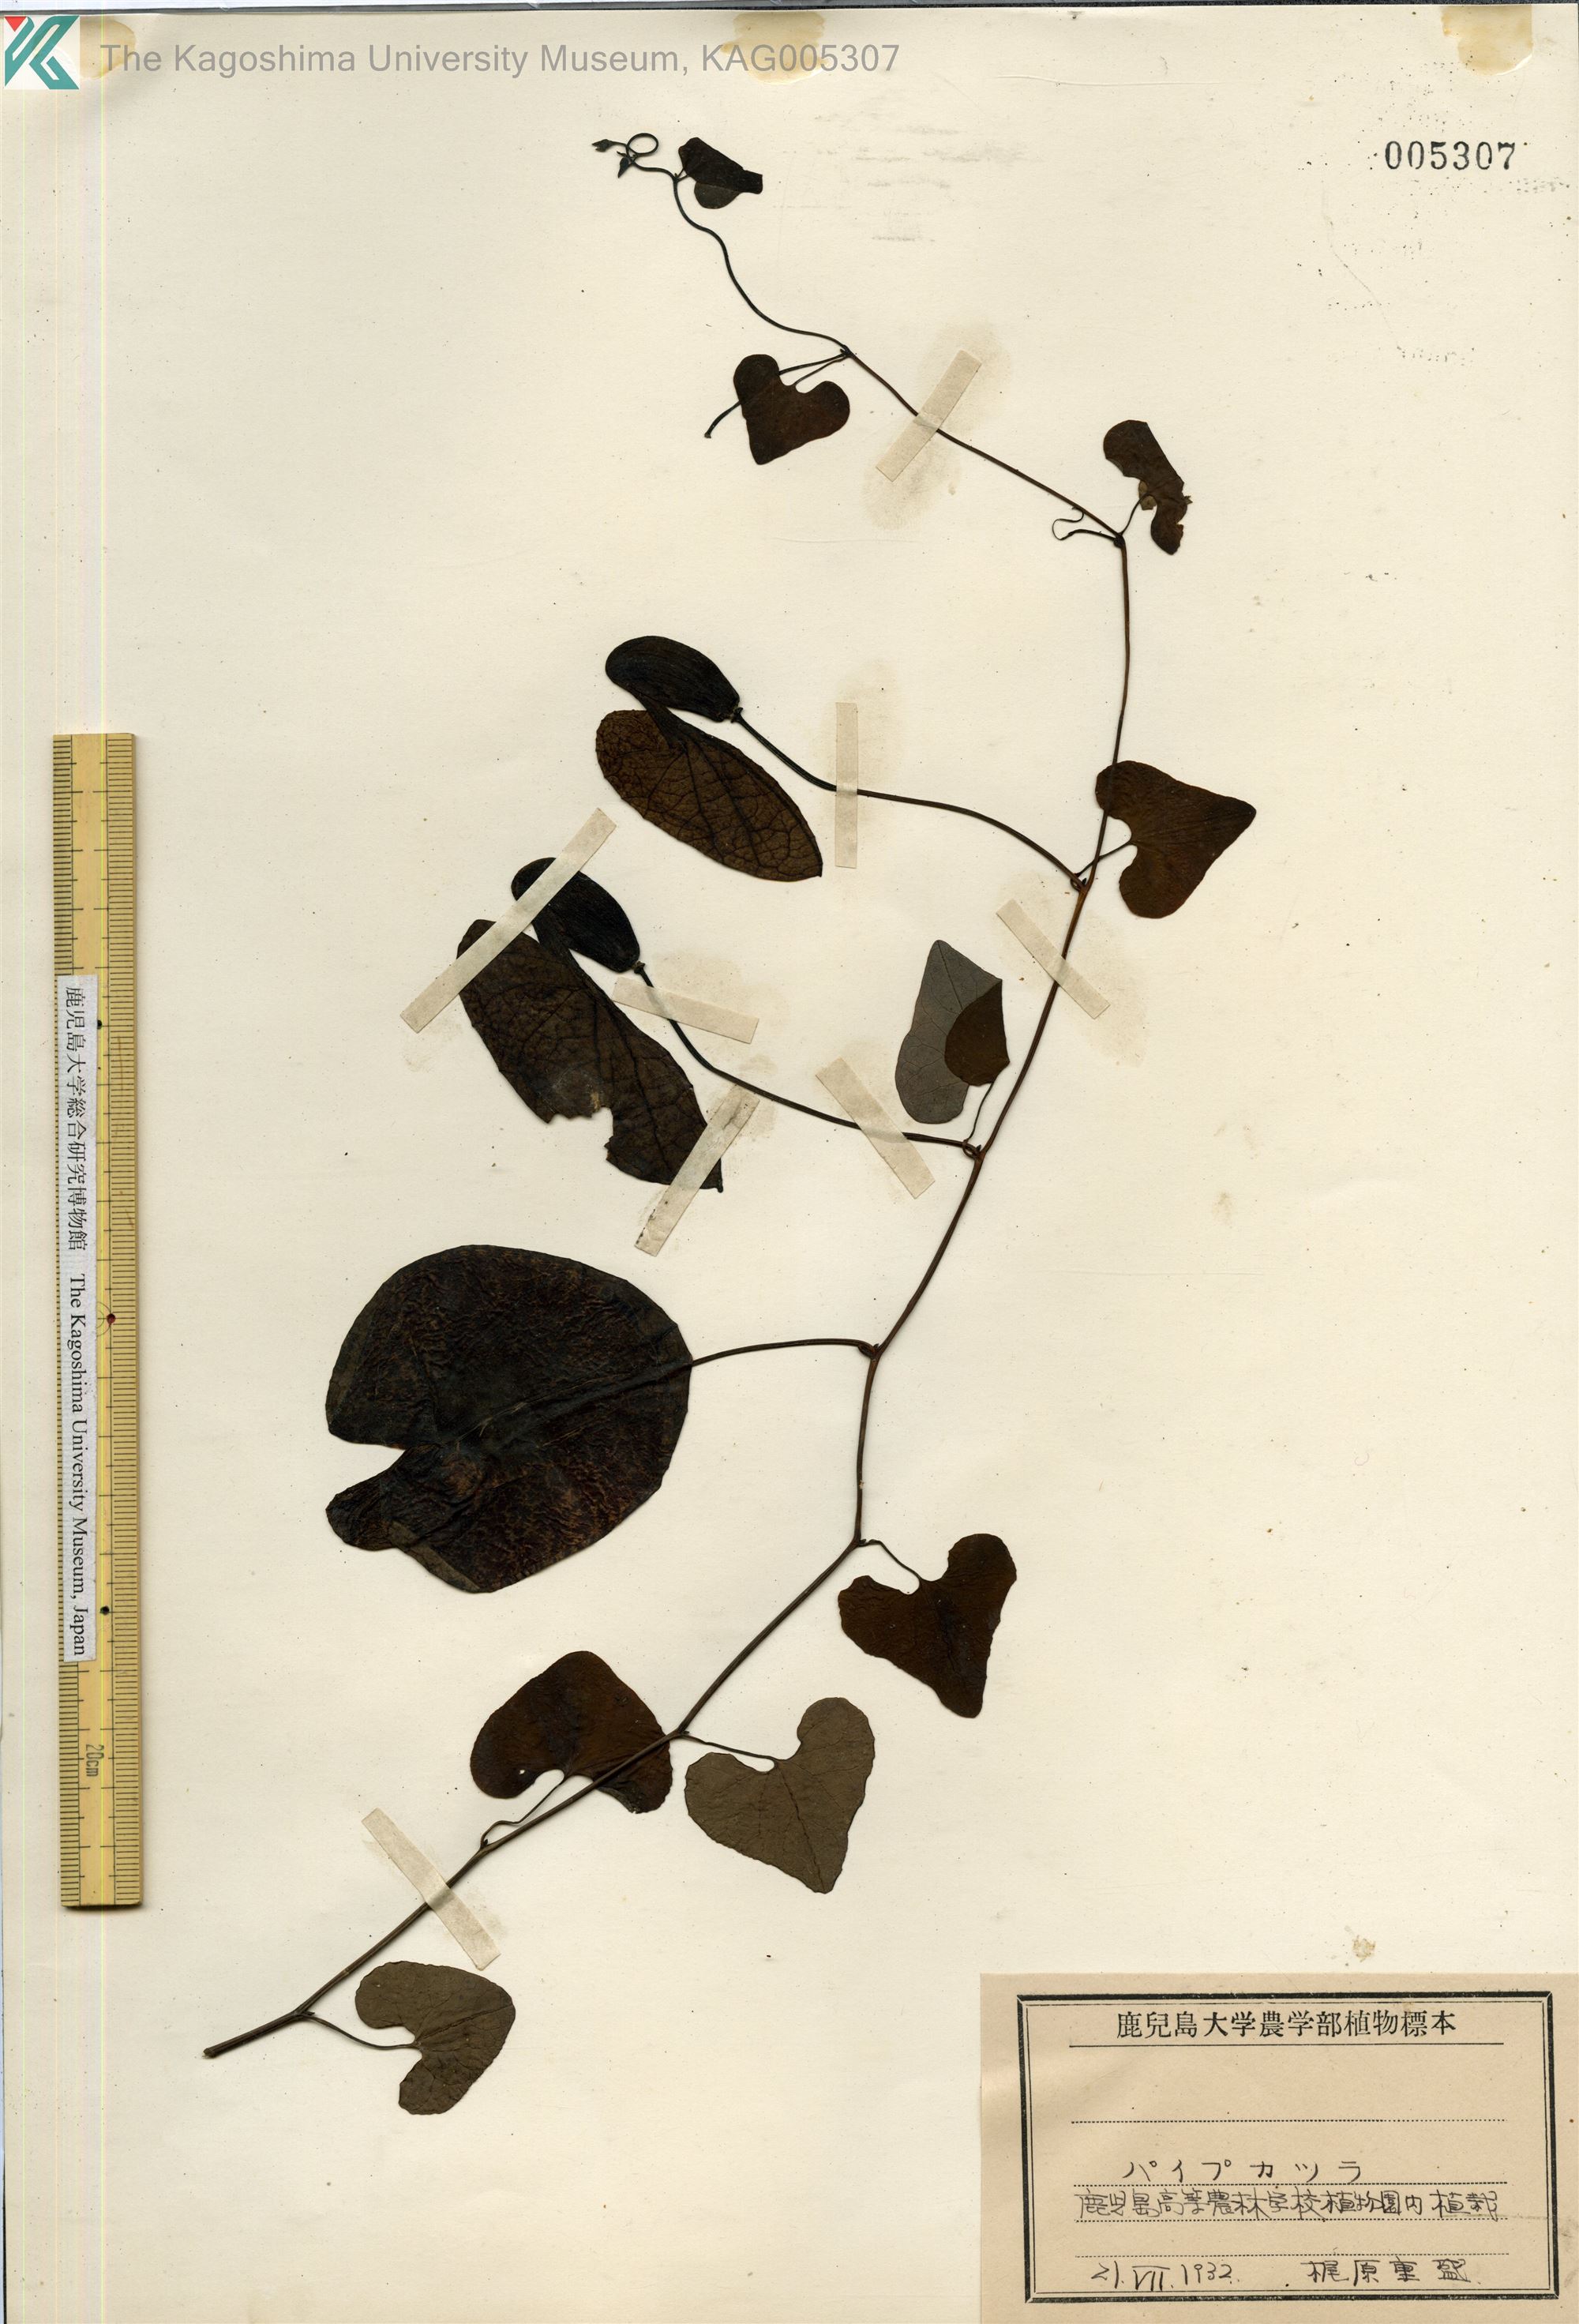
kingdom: Plantae
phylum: Tracheophyta
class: Magnoliopsida
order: Piperales
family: Aristolochiaceae
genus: Aristolochia
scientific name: Aristolochia littoralis
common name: Duck
